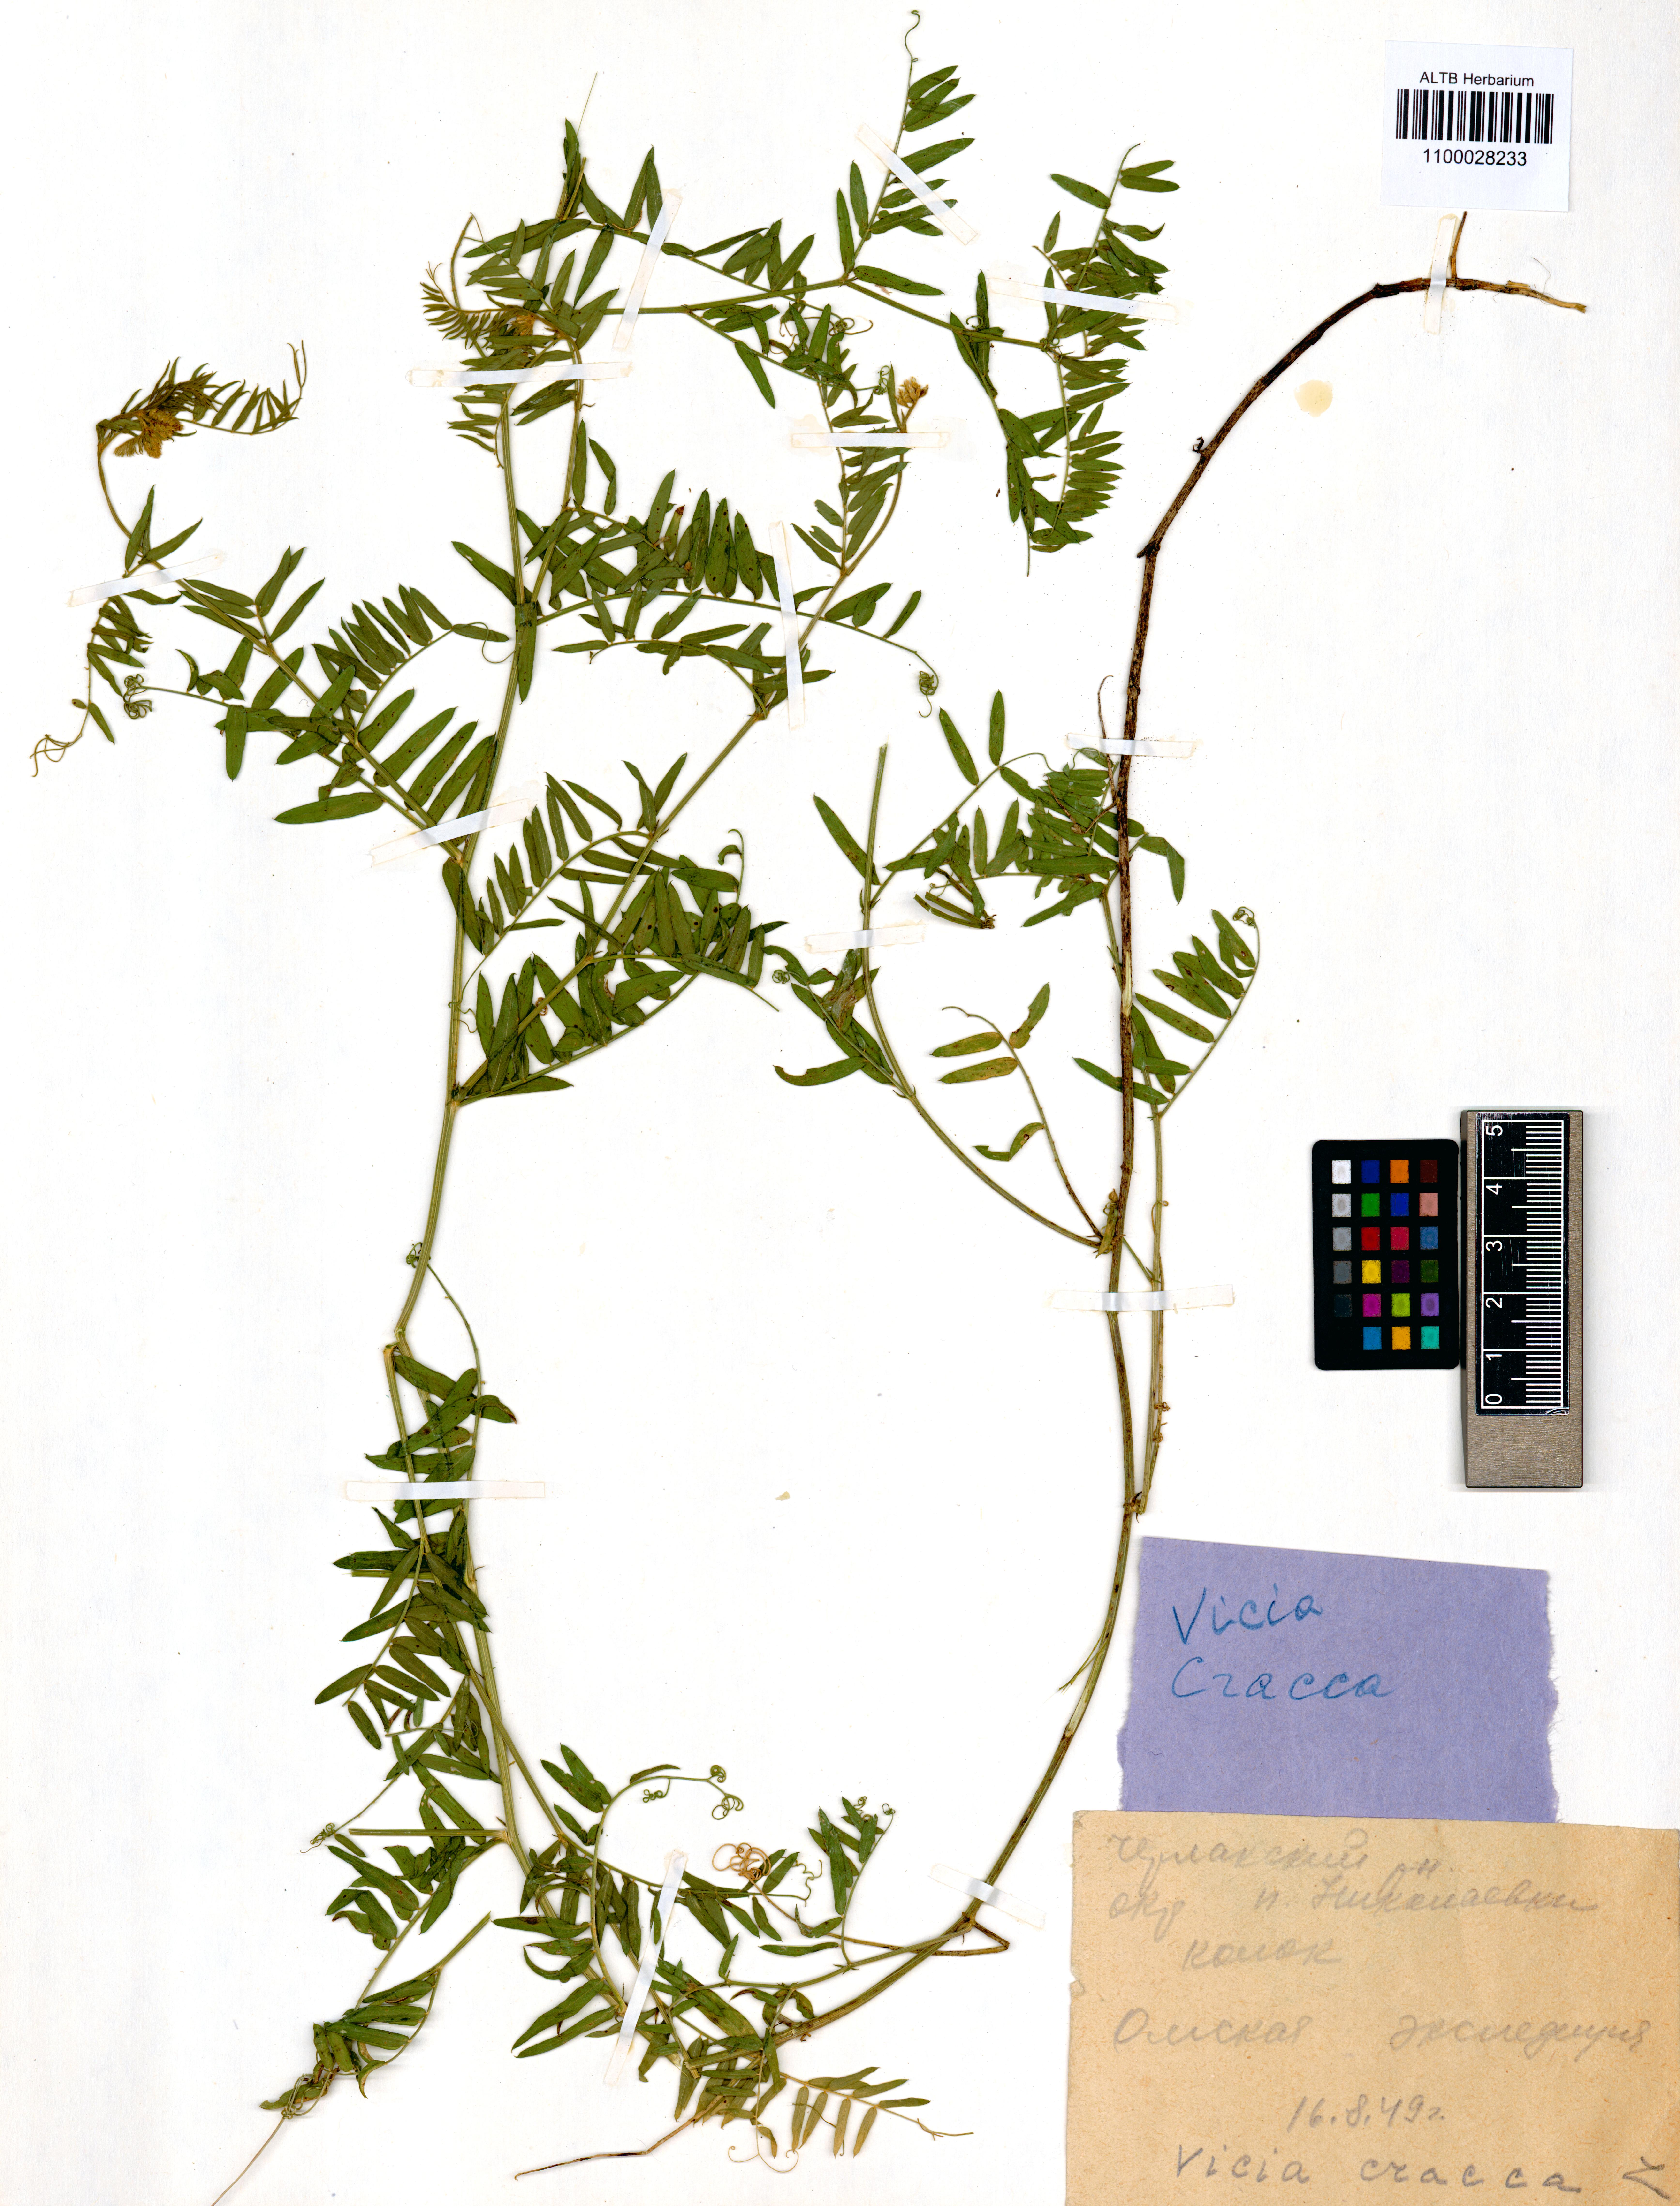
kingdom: Plantae
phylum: Tracheophyta
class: Magnoliopsida
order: Fabales
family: Fabaceae
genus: Vicia
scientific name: Vicia cracca
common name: Bird vetch
